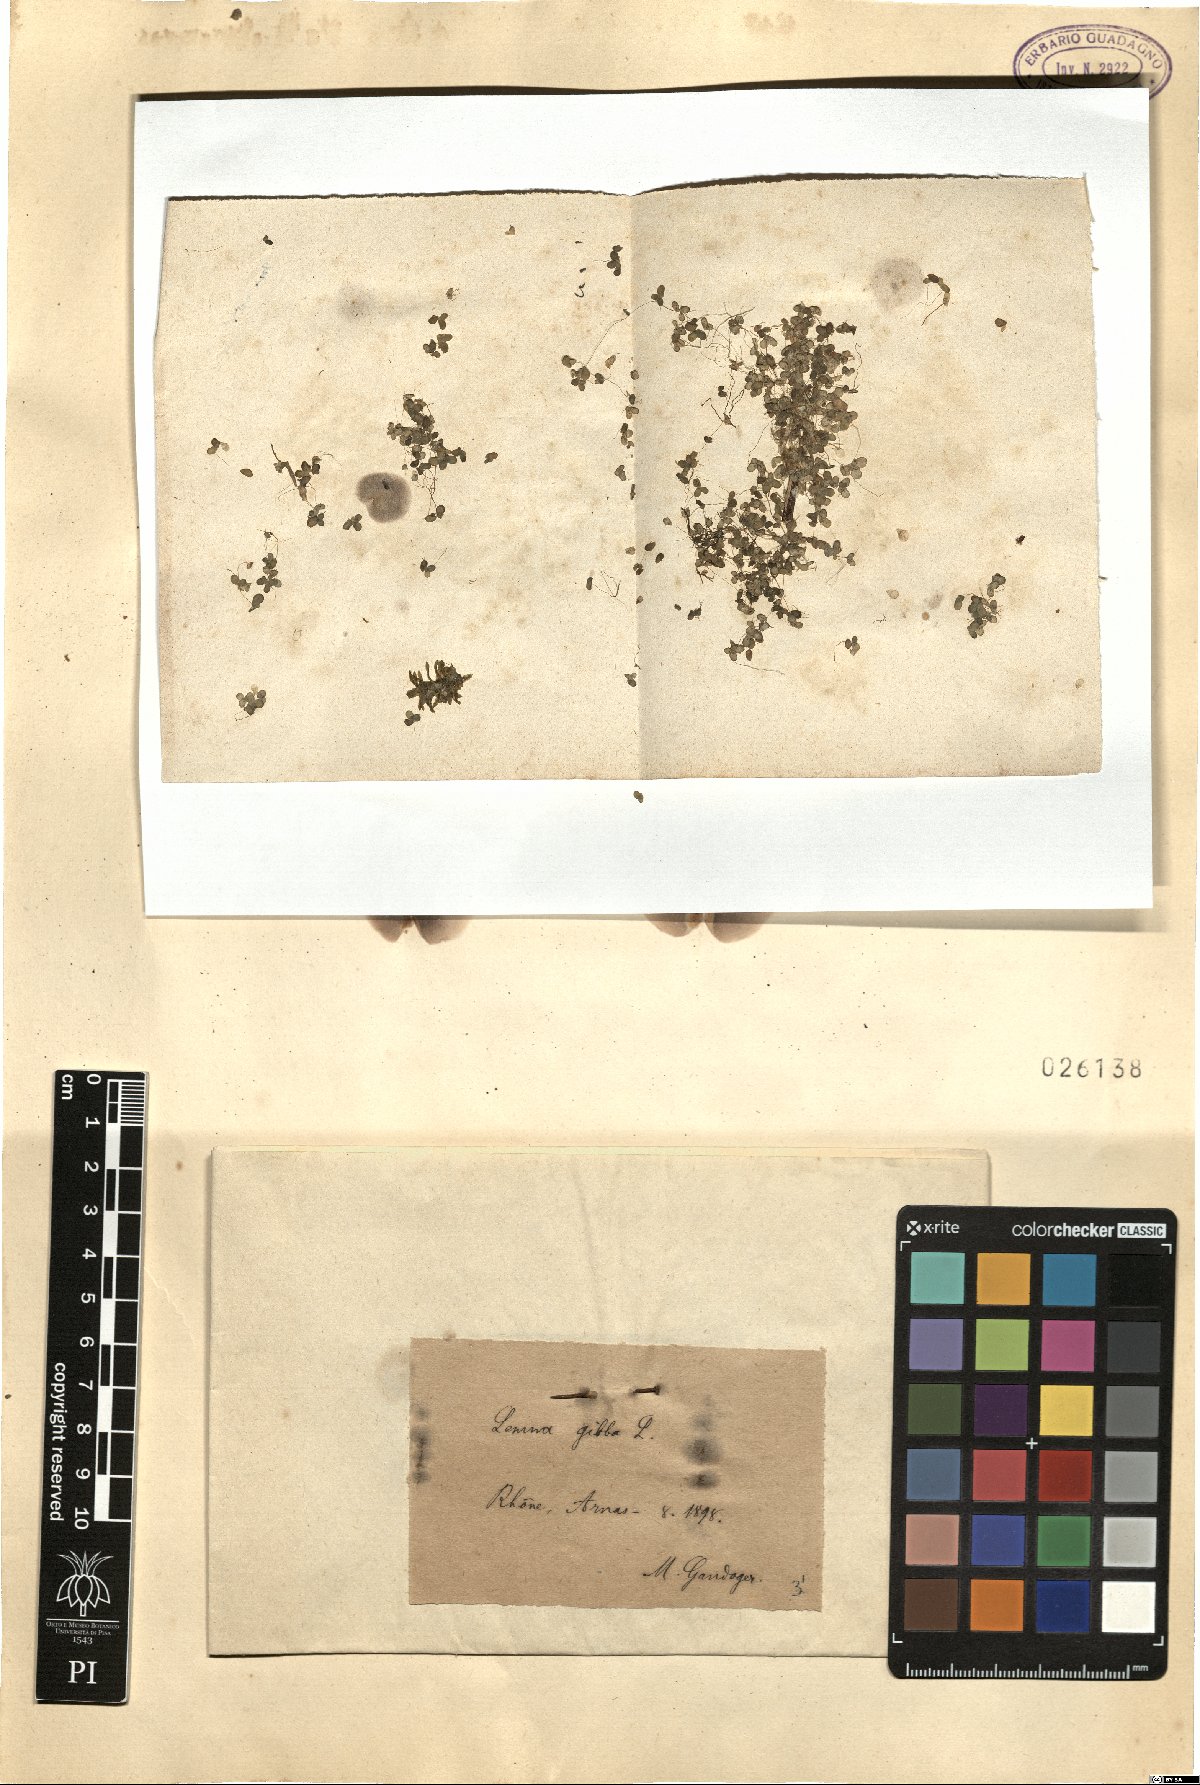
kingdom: Plantae
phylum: Tracheophyta
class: Liliopsida
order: Alismatales
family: Araceae
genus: Lemna
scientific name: Lemna gibba
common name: Fat duckweed
